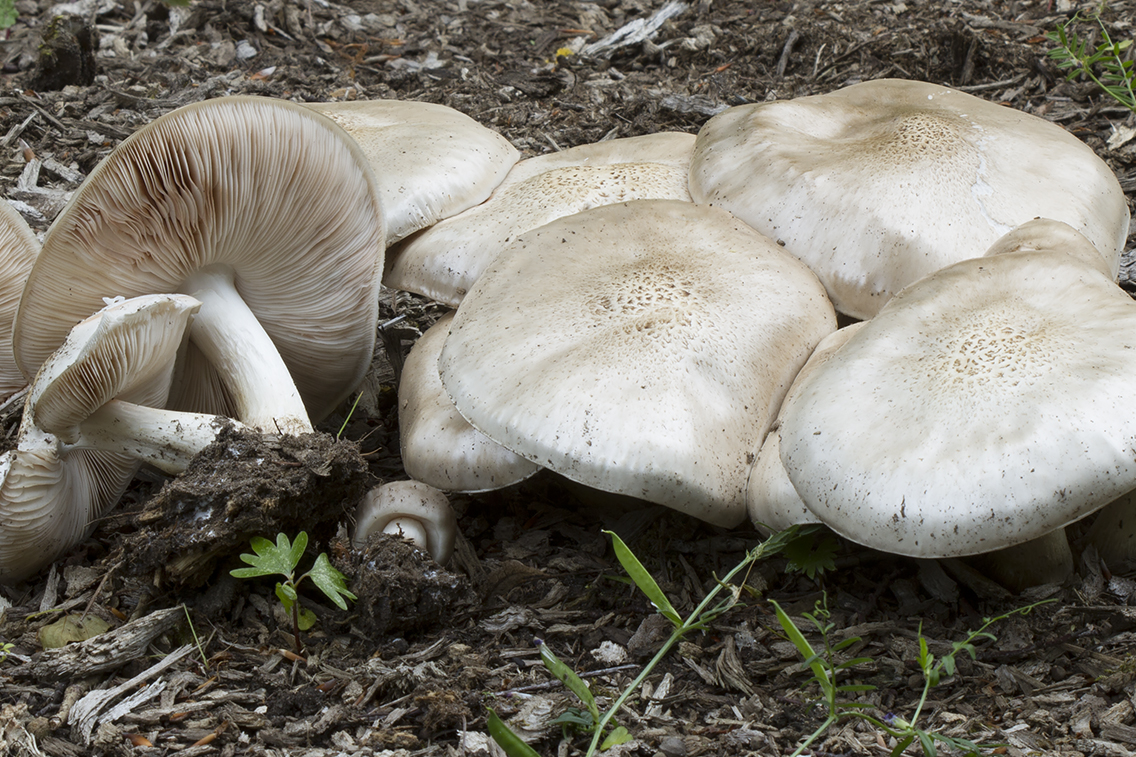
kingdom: Fungi
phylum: Basidiomycota
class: Agaricomycetes
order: Agaricales
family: Pluteaceae
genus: Pluteus
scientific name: Pluteus petasatus
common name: savsmulds-skærmhat
